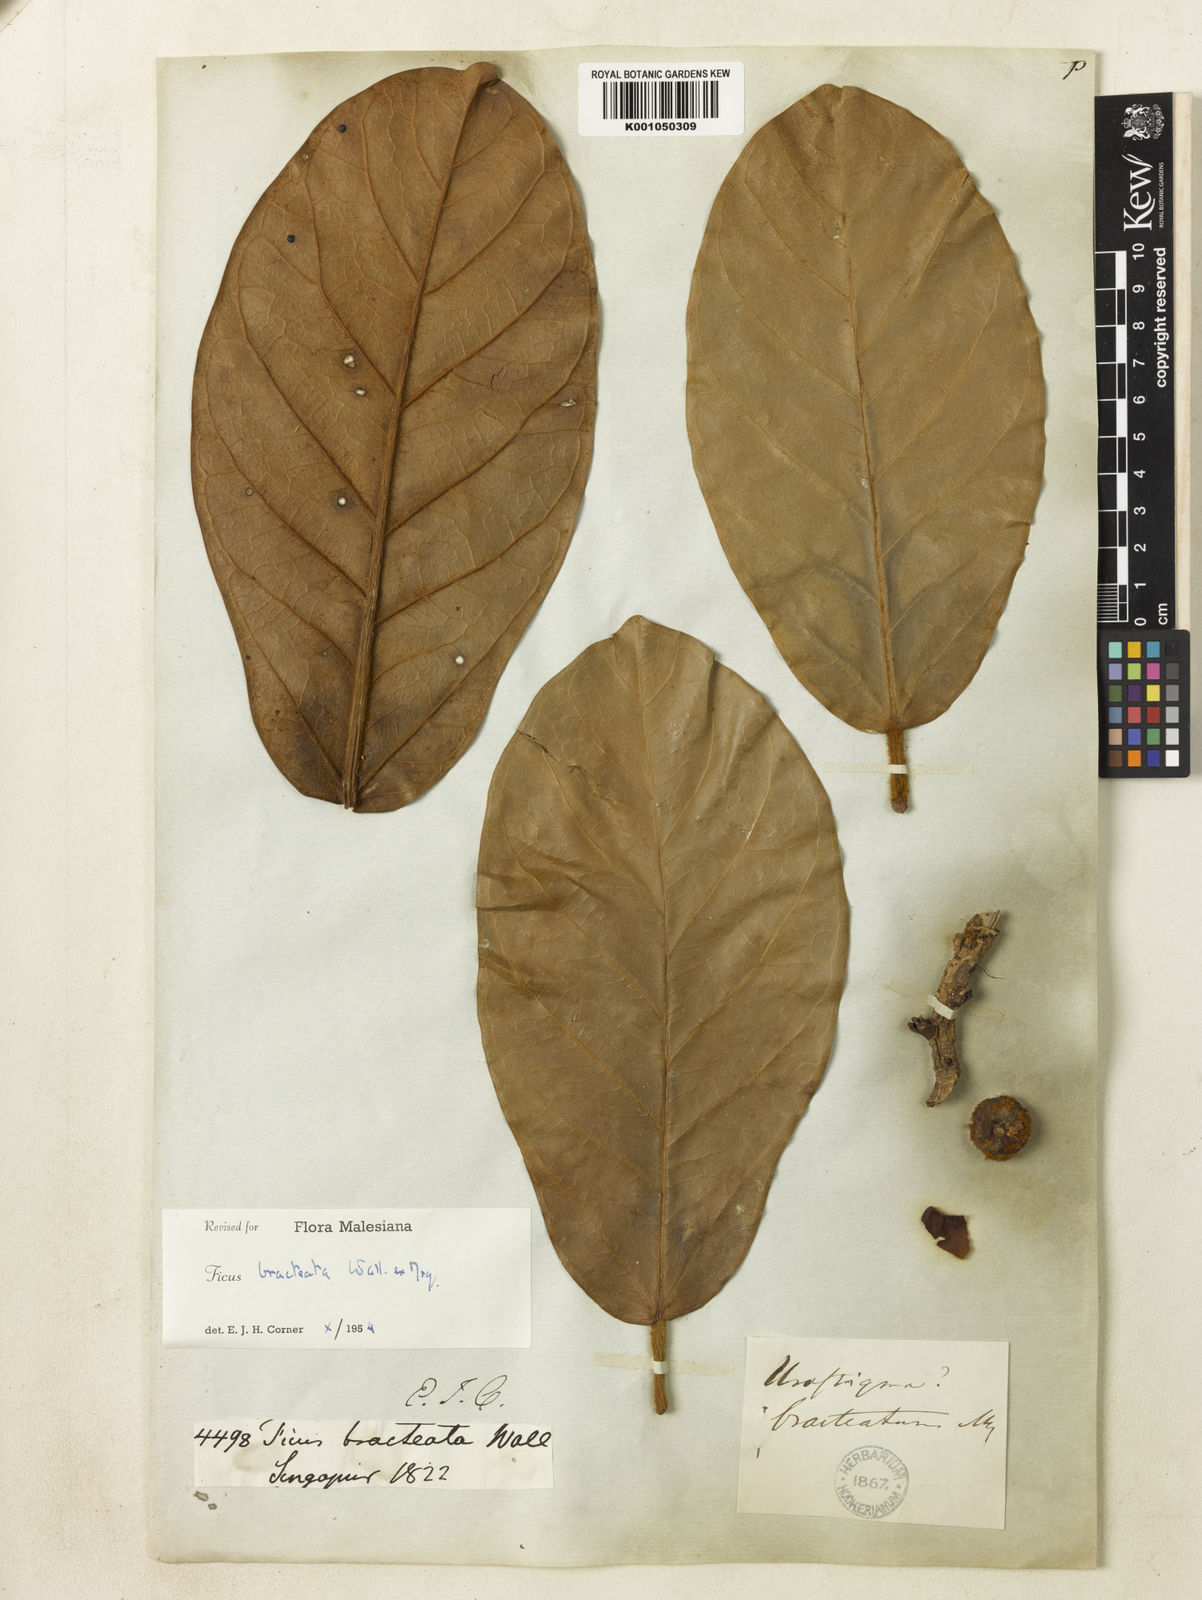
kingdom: Plantae
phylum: Tracheophyta
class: Magnoliopsida
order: Rosales
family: Moraceae
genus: Ficus
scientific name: Ficus
